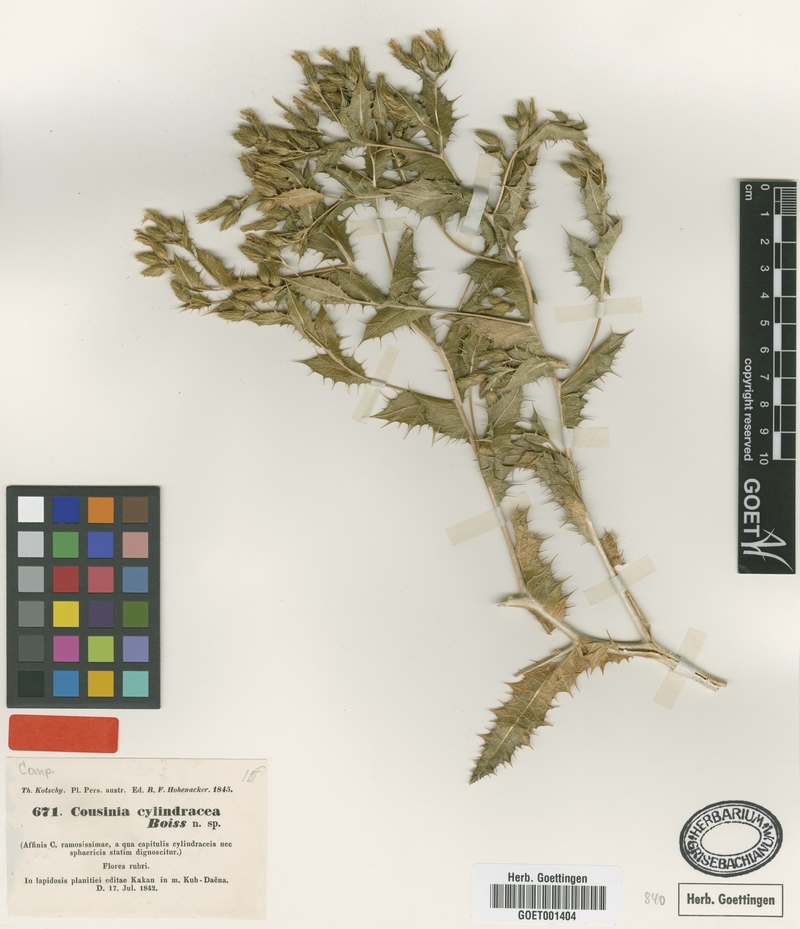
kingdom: Plantae
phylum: Tracheophyta
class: Magnoliopsida
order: Asterales
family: Asteraceae
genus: Cousinia
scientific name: Cousinia cylindracea
